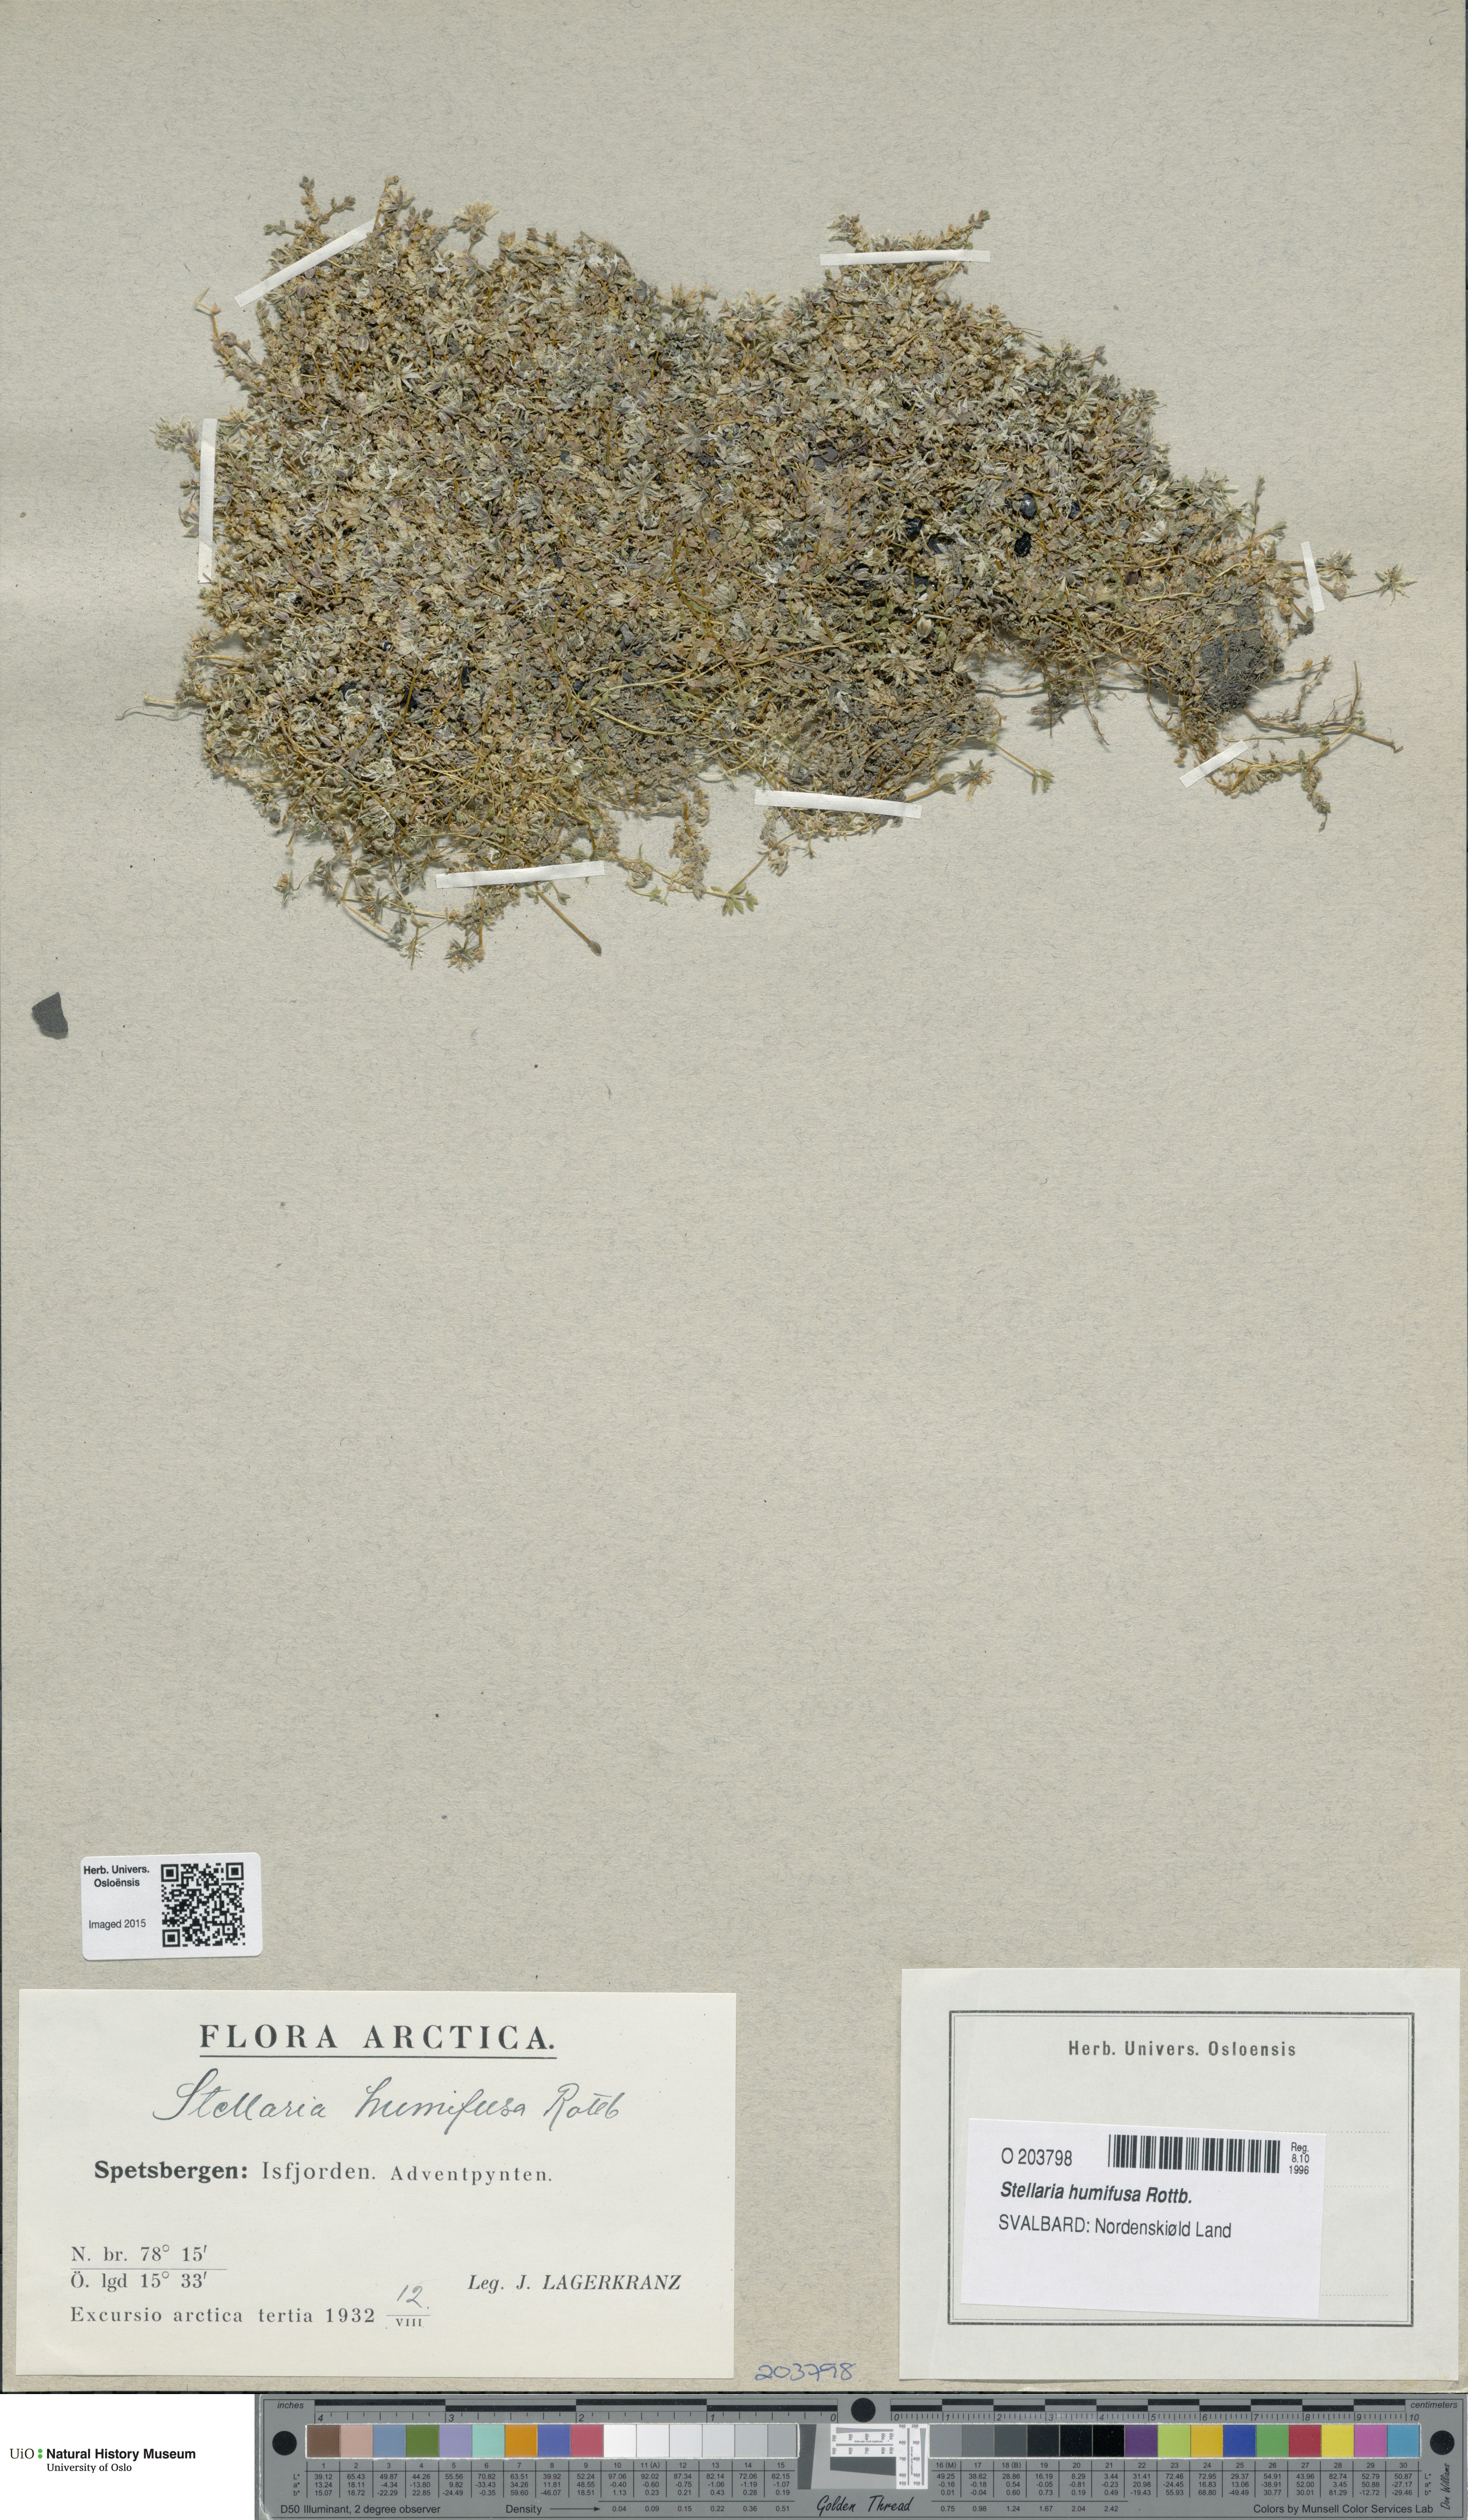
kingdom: Plantae
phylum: Tracheophyta
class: Magnoliopsida
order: Caryophyllales
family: Caryophyllaceae
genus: Stellaria
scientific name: Stellaria humifusa
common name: Creeping starwort
